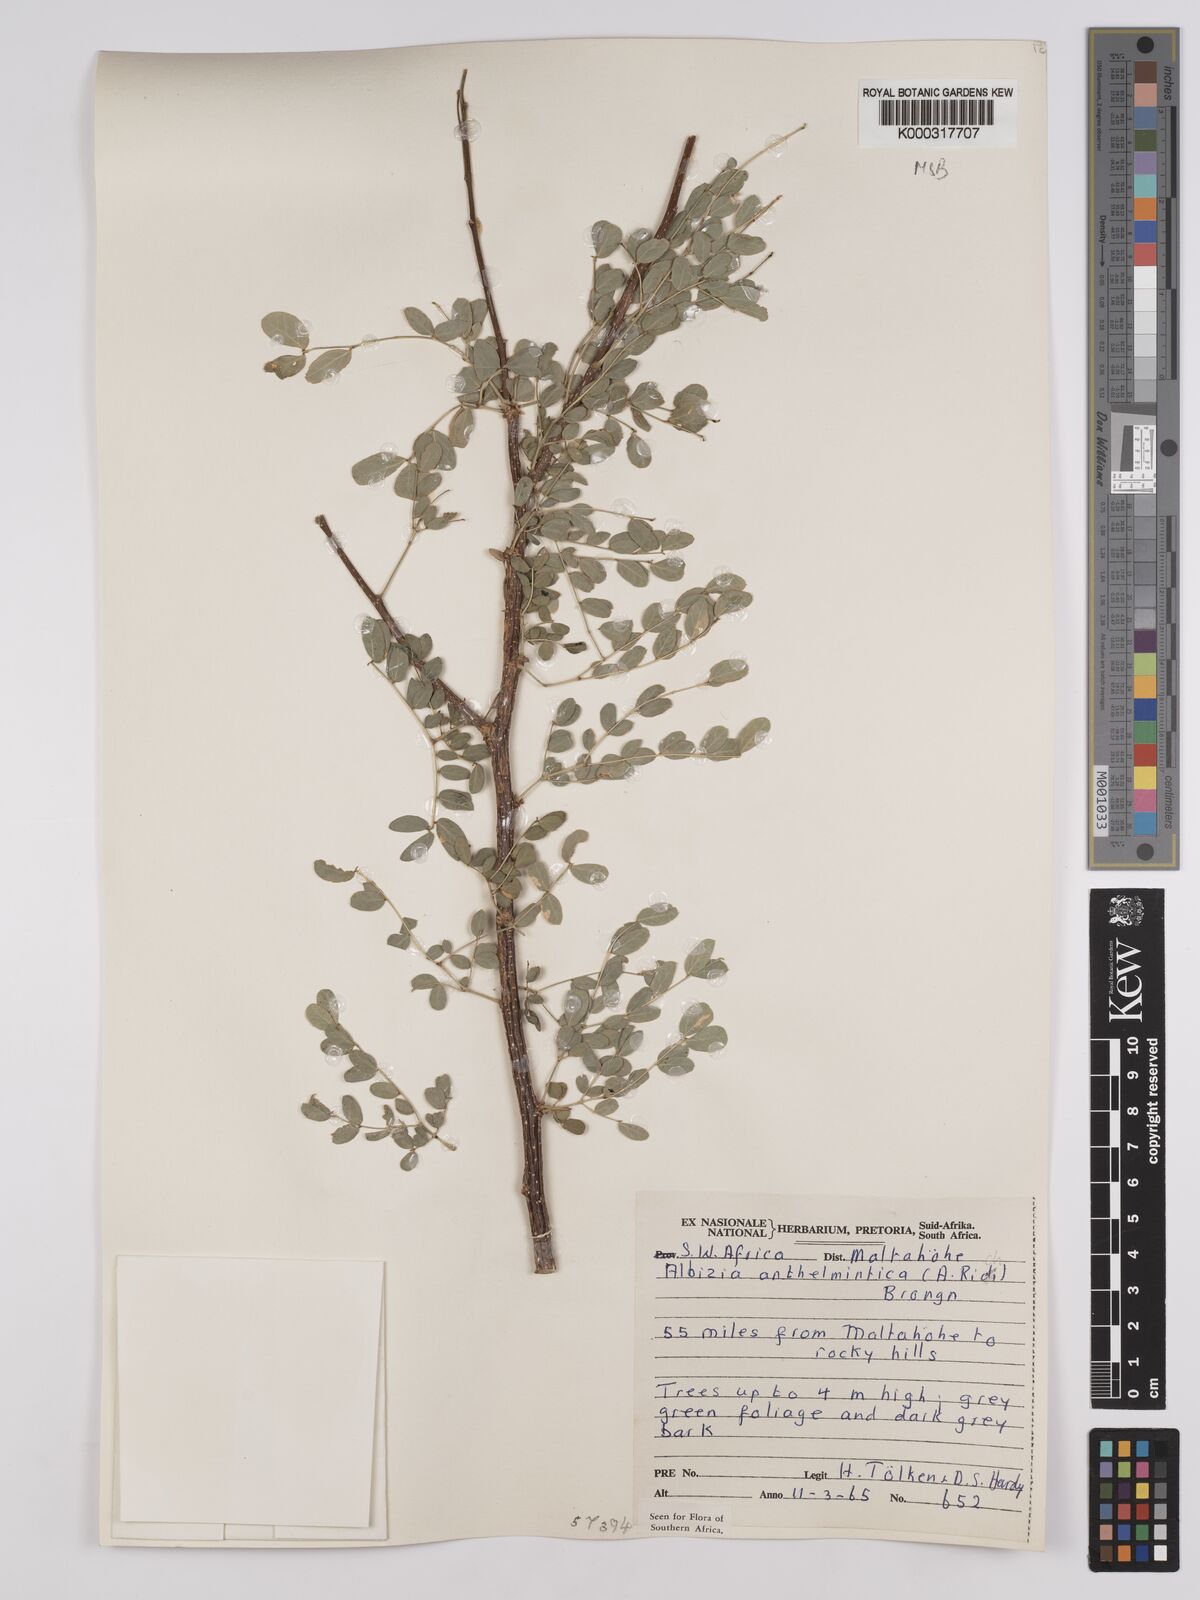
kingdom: Plantae
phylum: Tracheophyta
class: Magnoliopsida
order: Fabales
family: Fabaceae
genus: Albizia
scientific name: Albizia anthelmintica
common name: Worm-bark false-thorn
